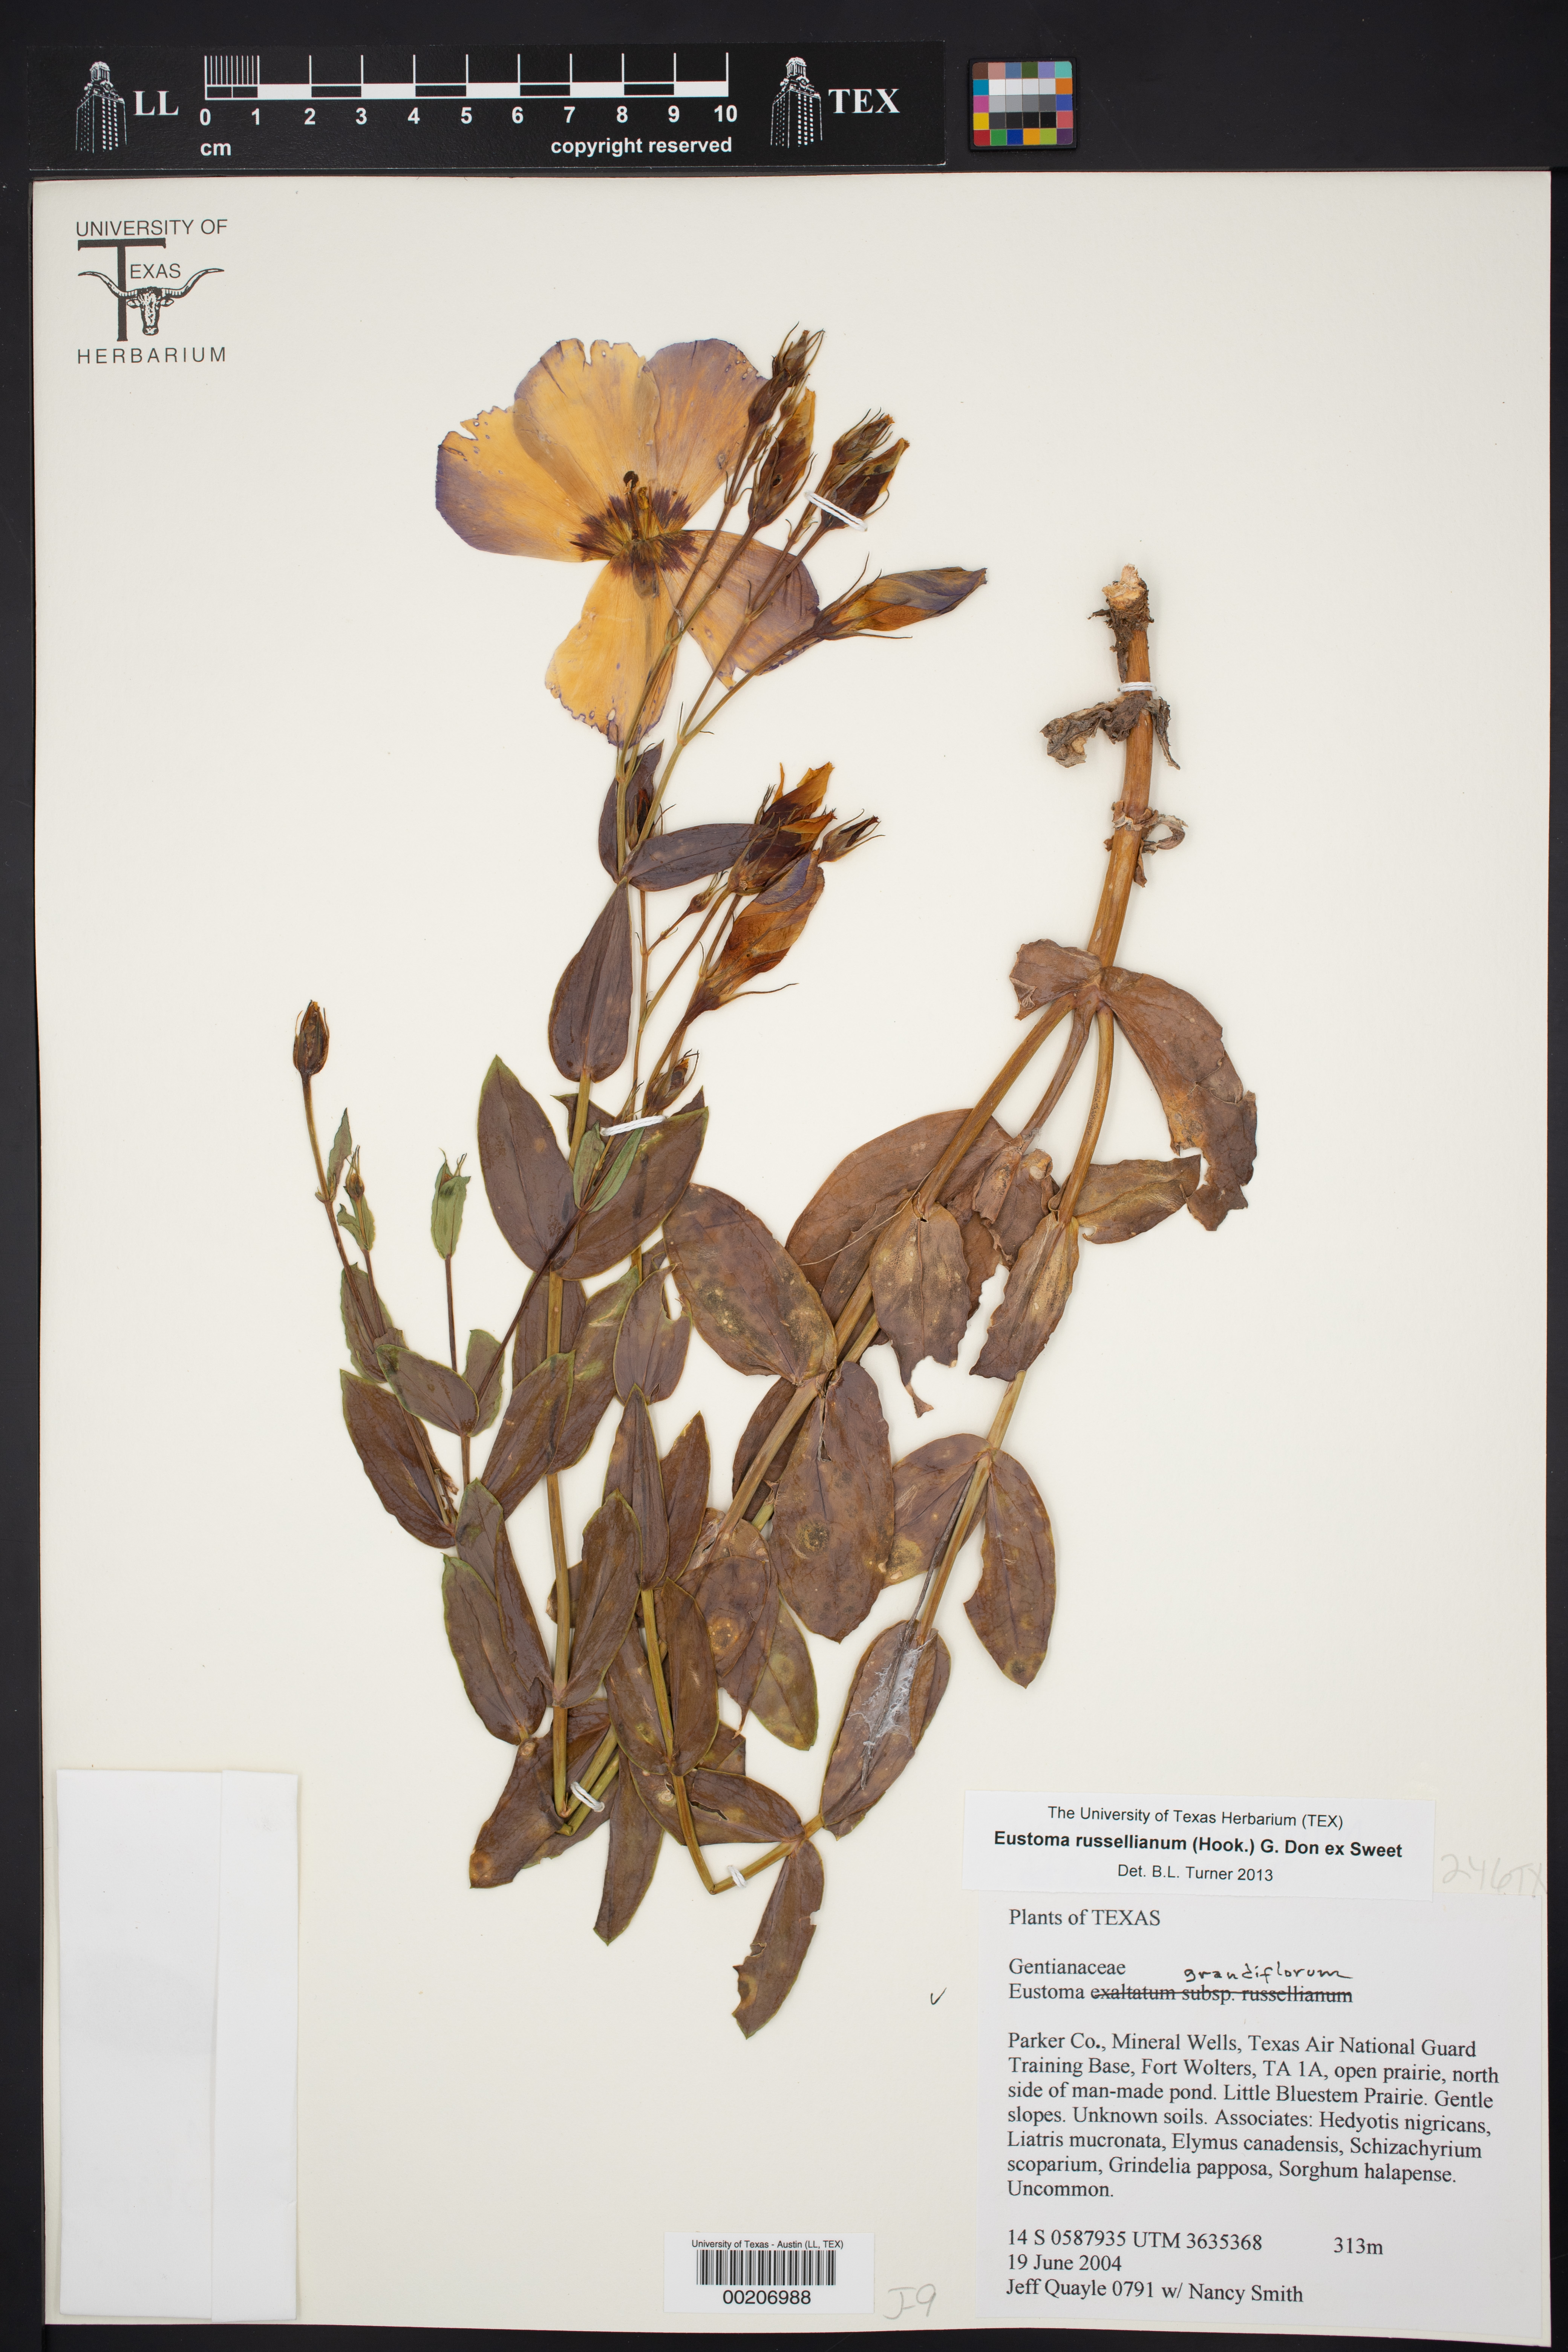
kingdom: Plantae
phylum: Tracheophyta
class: Magnoliopsida
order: Gentianales
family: Gentianaceae
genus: Eustoma
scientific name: Eustoma russellianum
